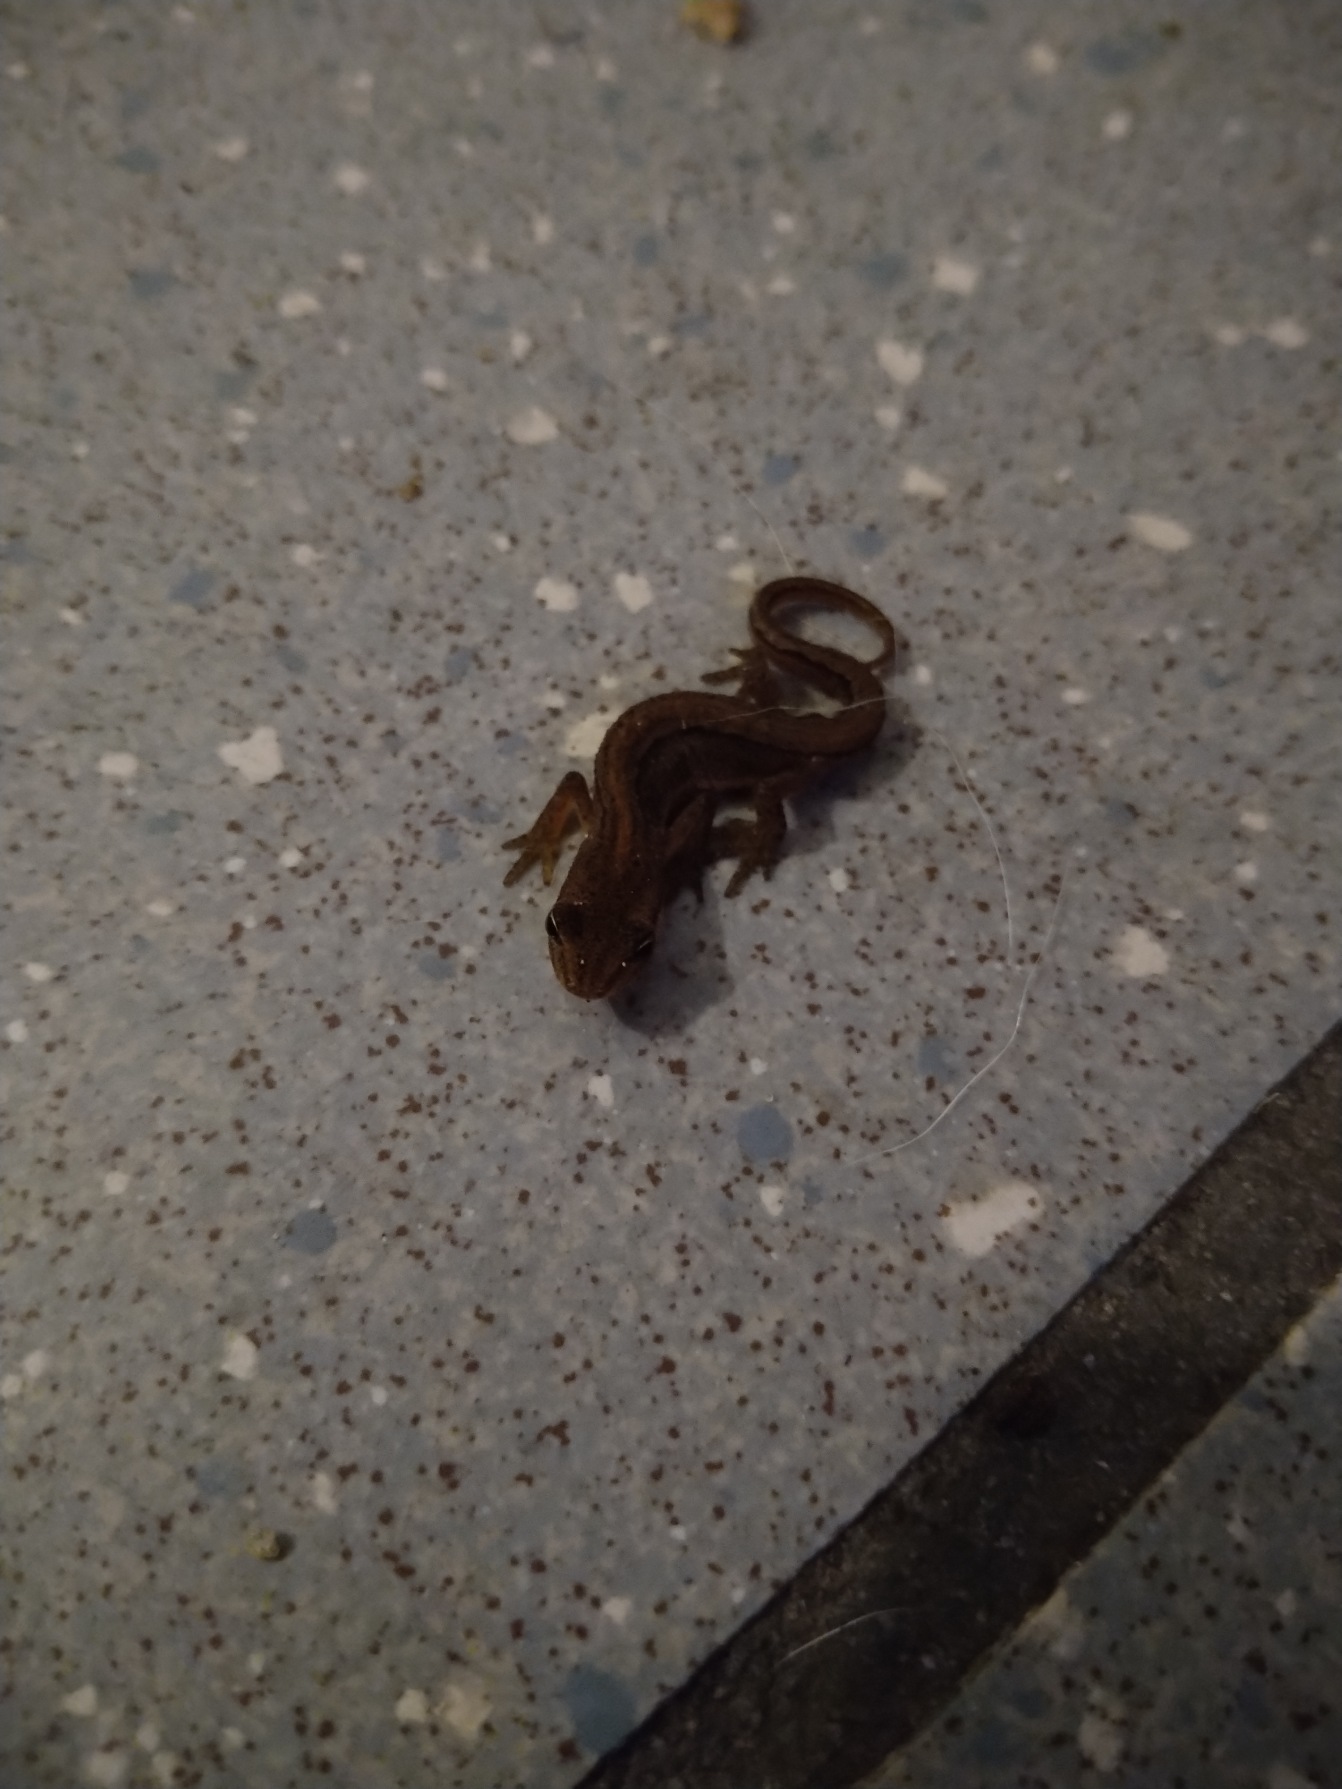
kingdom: Animalia
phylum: Chordata
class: Amphibia
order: Caudata
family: Salamandridae
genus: Lissotriton
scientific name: Lissotriton vulgaris
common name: Lille vandsalamander
